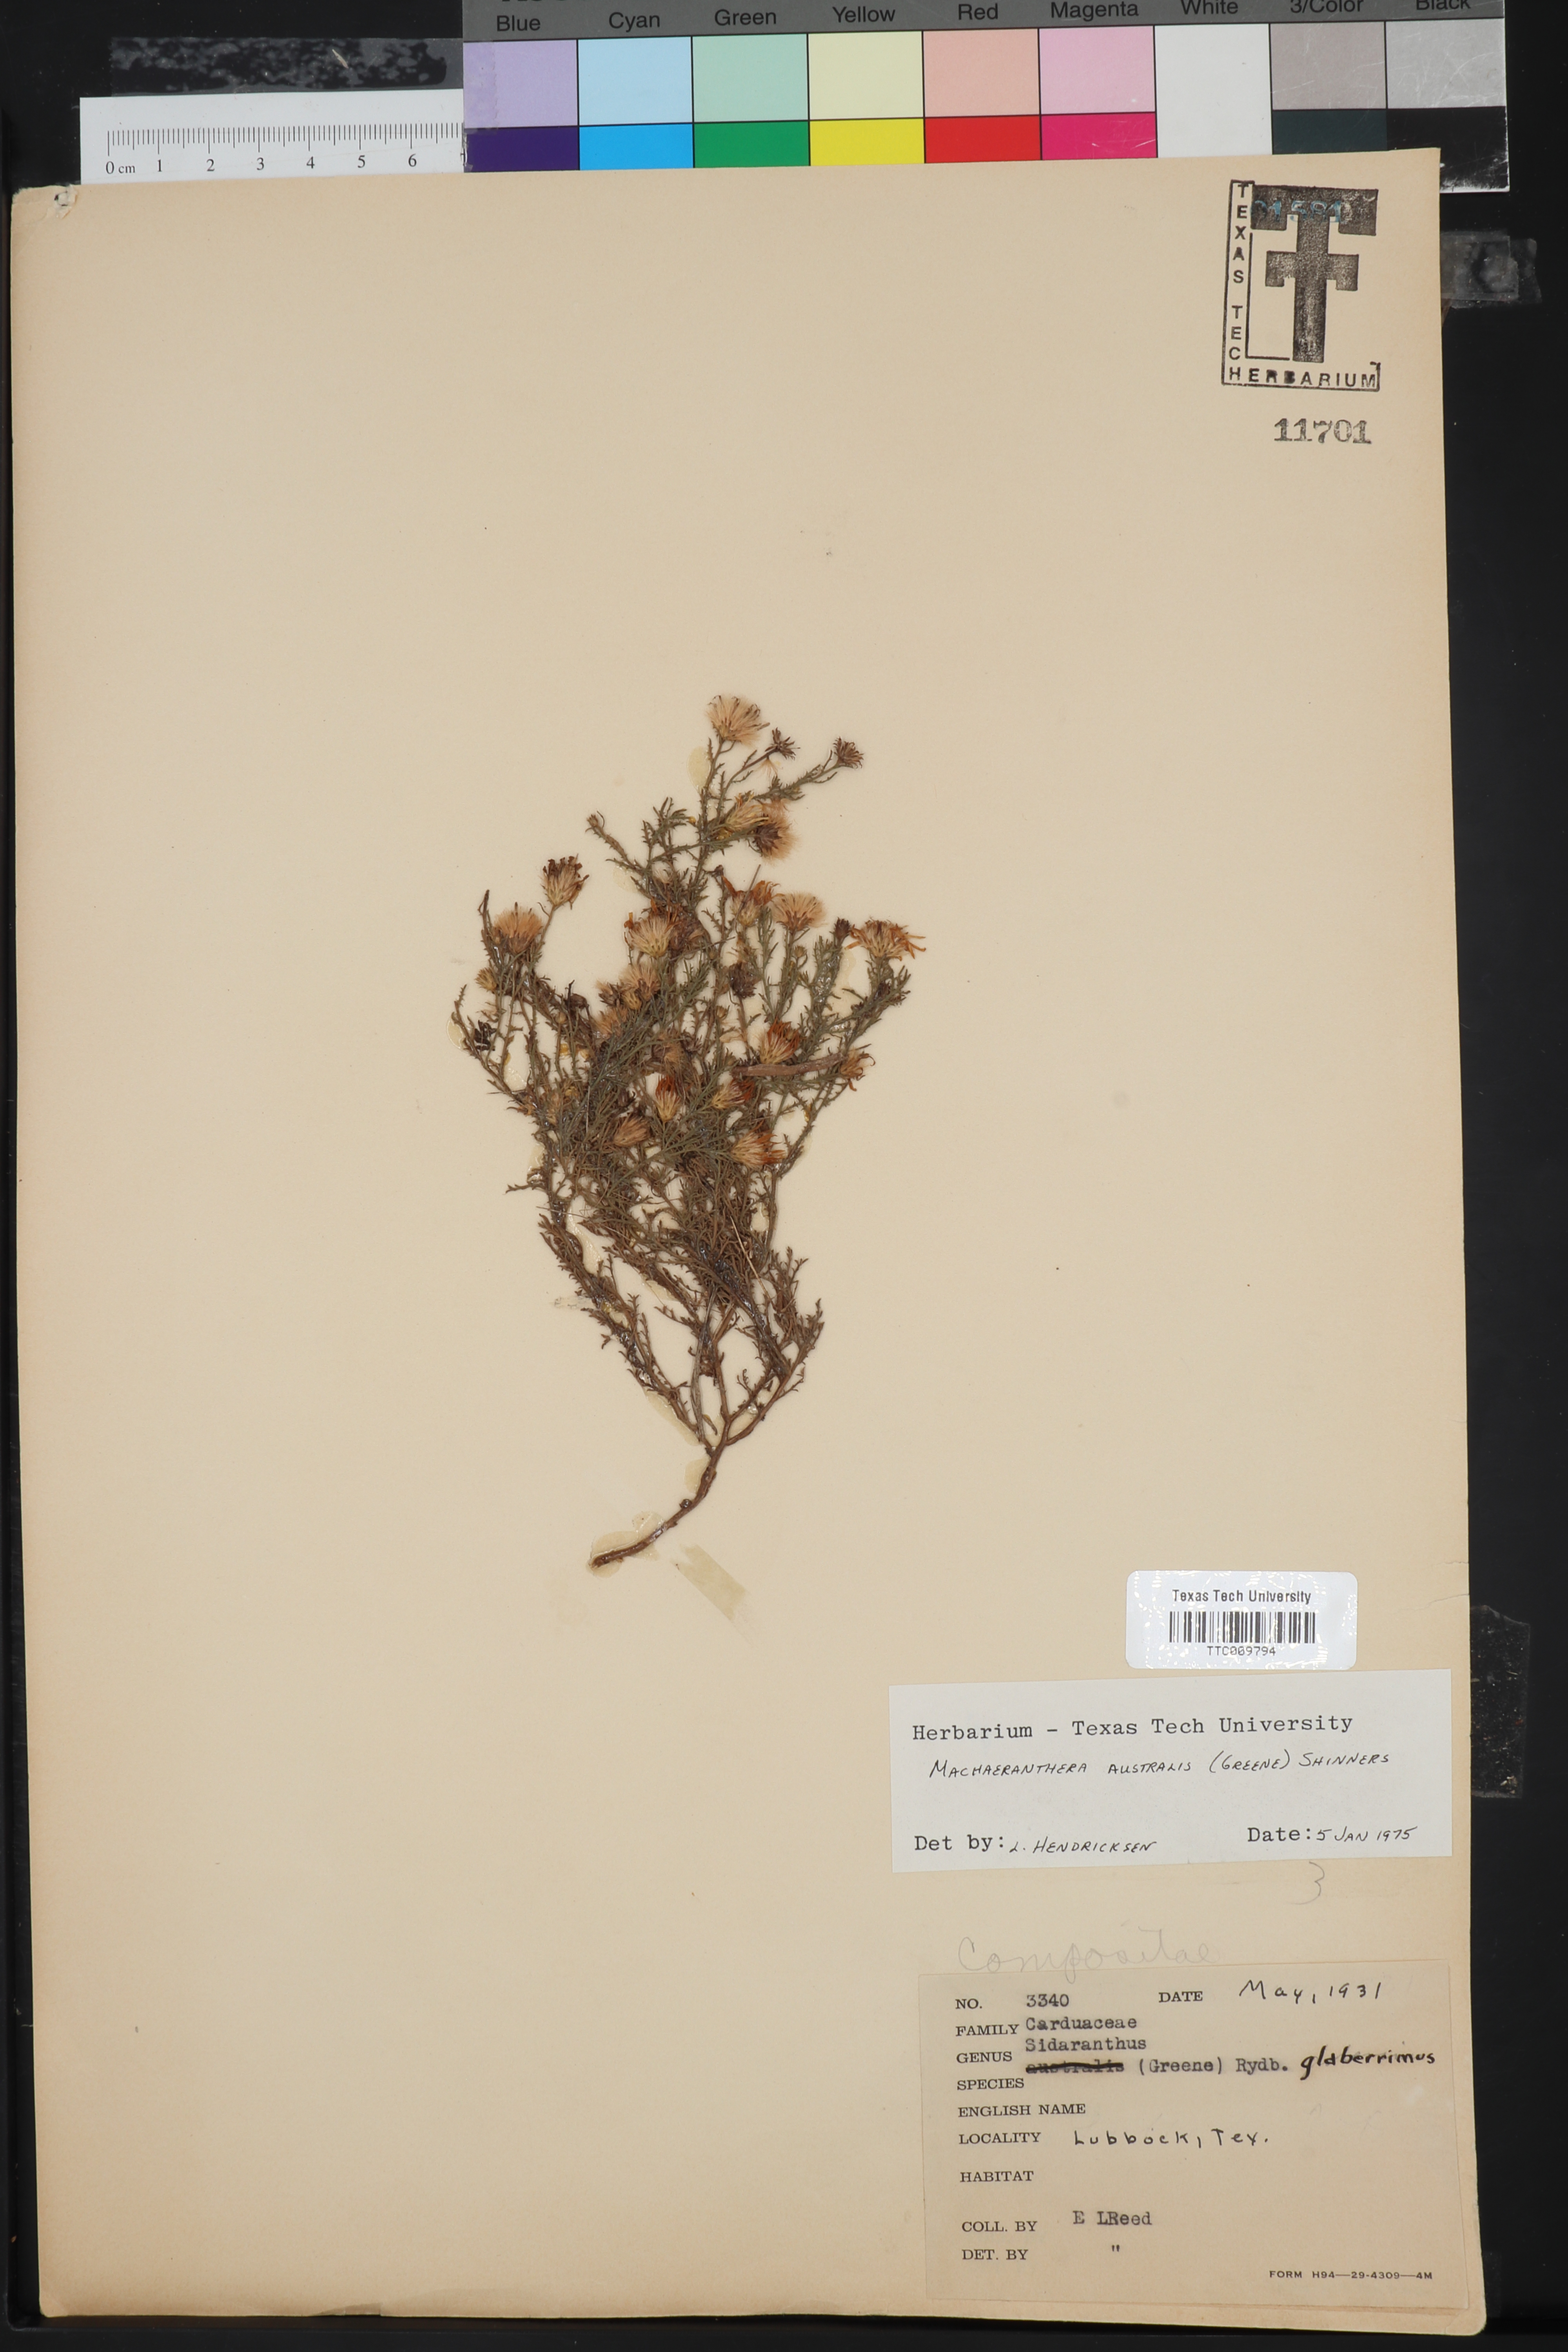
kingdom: Plantae
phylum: Tracheophyta
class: Magnoliopsida
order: Asterales
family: Asteraceae
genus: Xanthisma
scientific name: Xanthisma spinulosum
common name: Spiny goldenweed
